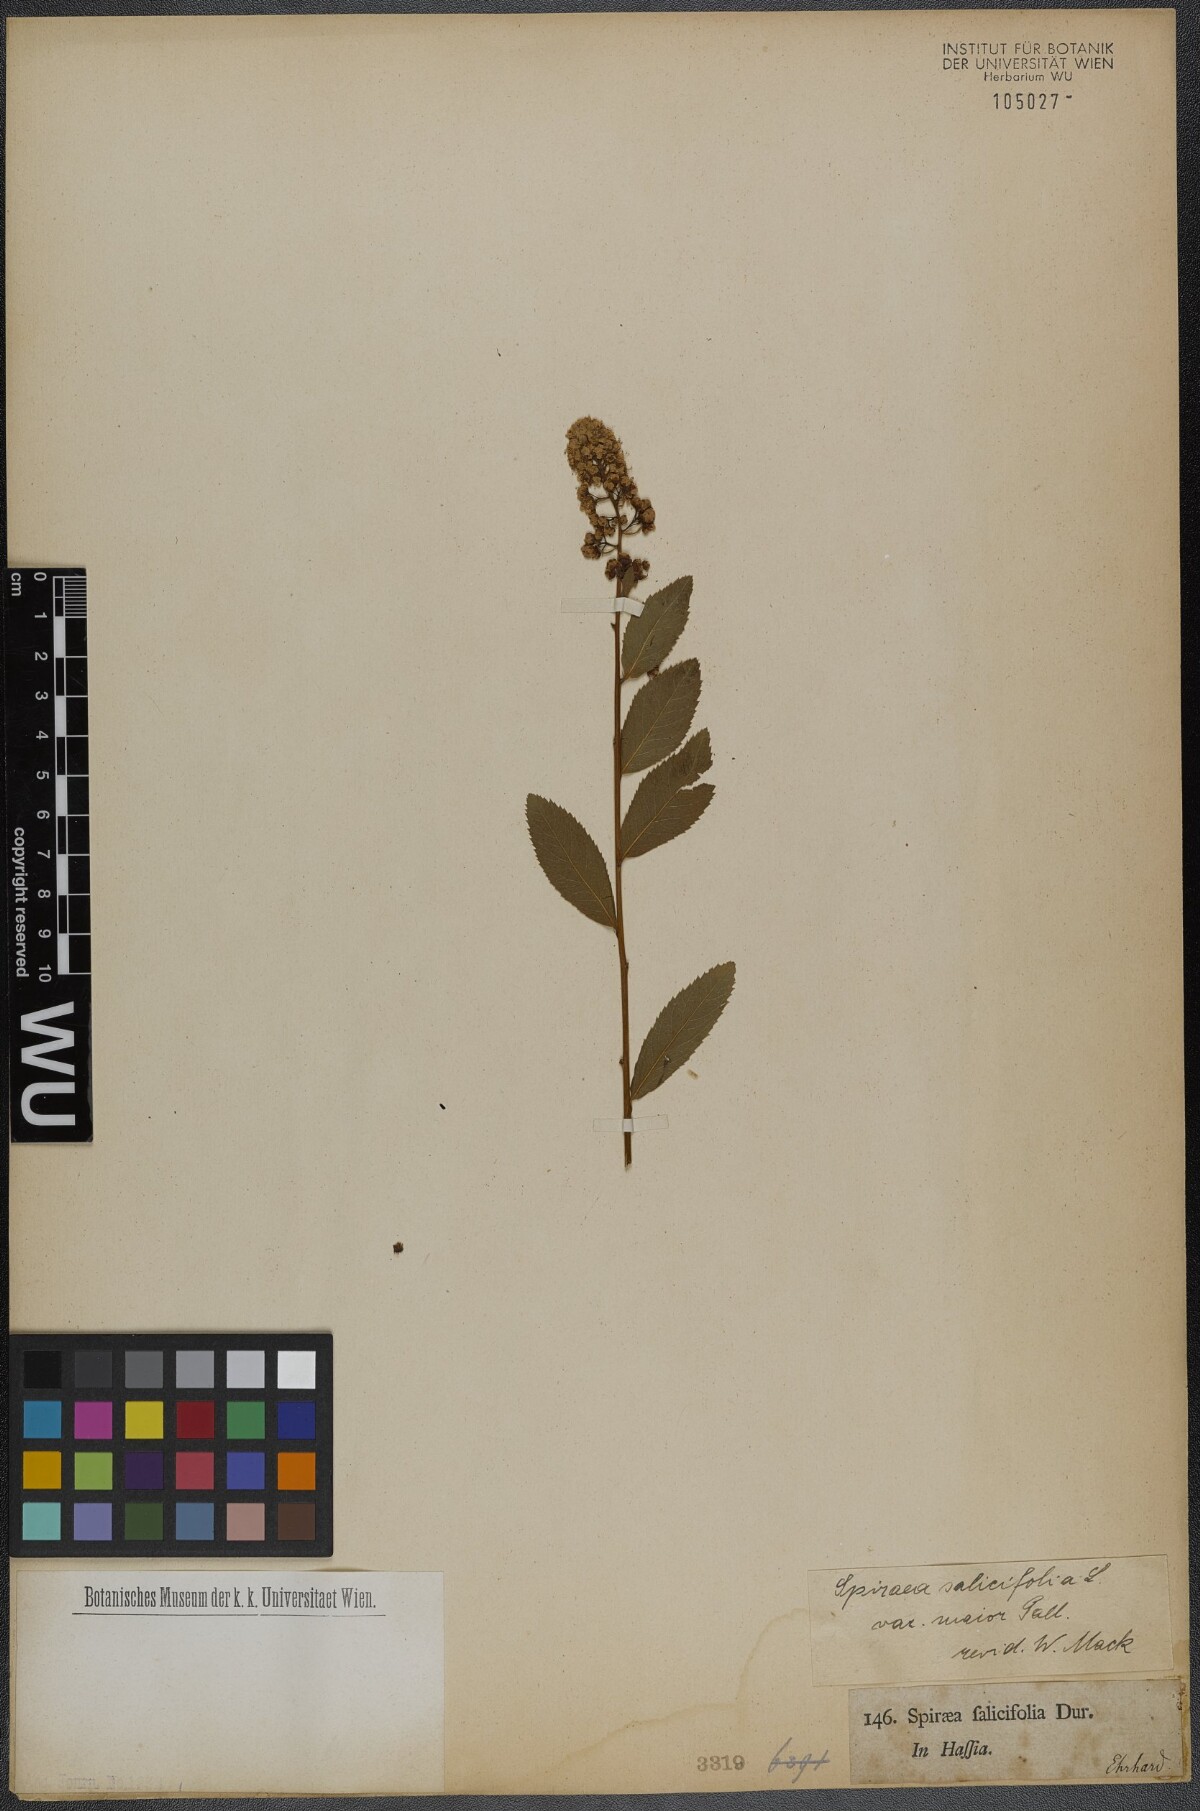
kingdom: Plantae
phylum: Tracheophyta
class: Magnoliopsida
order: Rosales
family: Rosaceae
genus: Spiraea
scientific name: Spiraea salicifolia
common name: Bridewort
